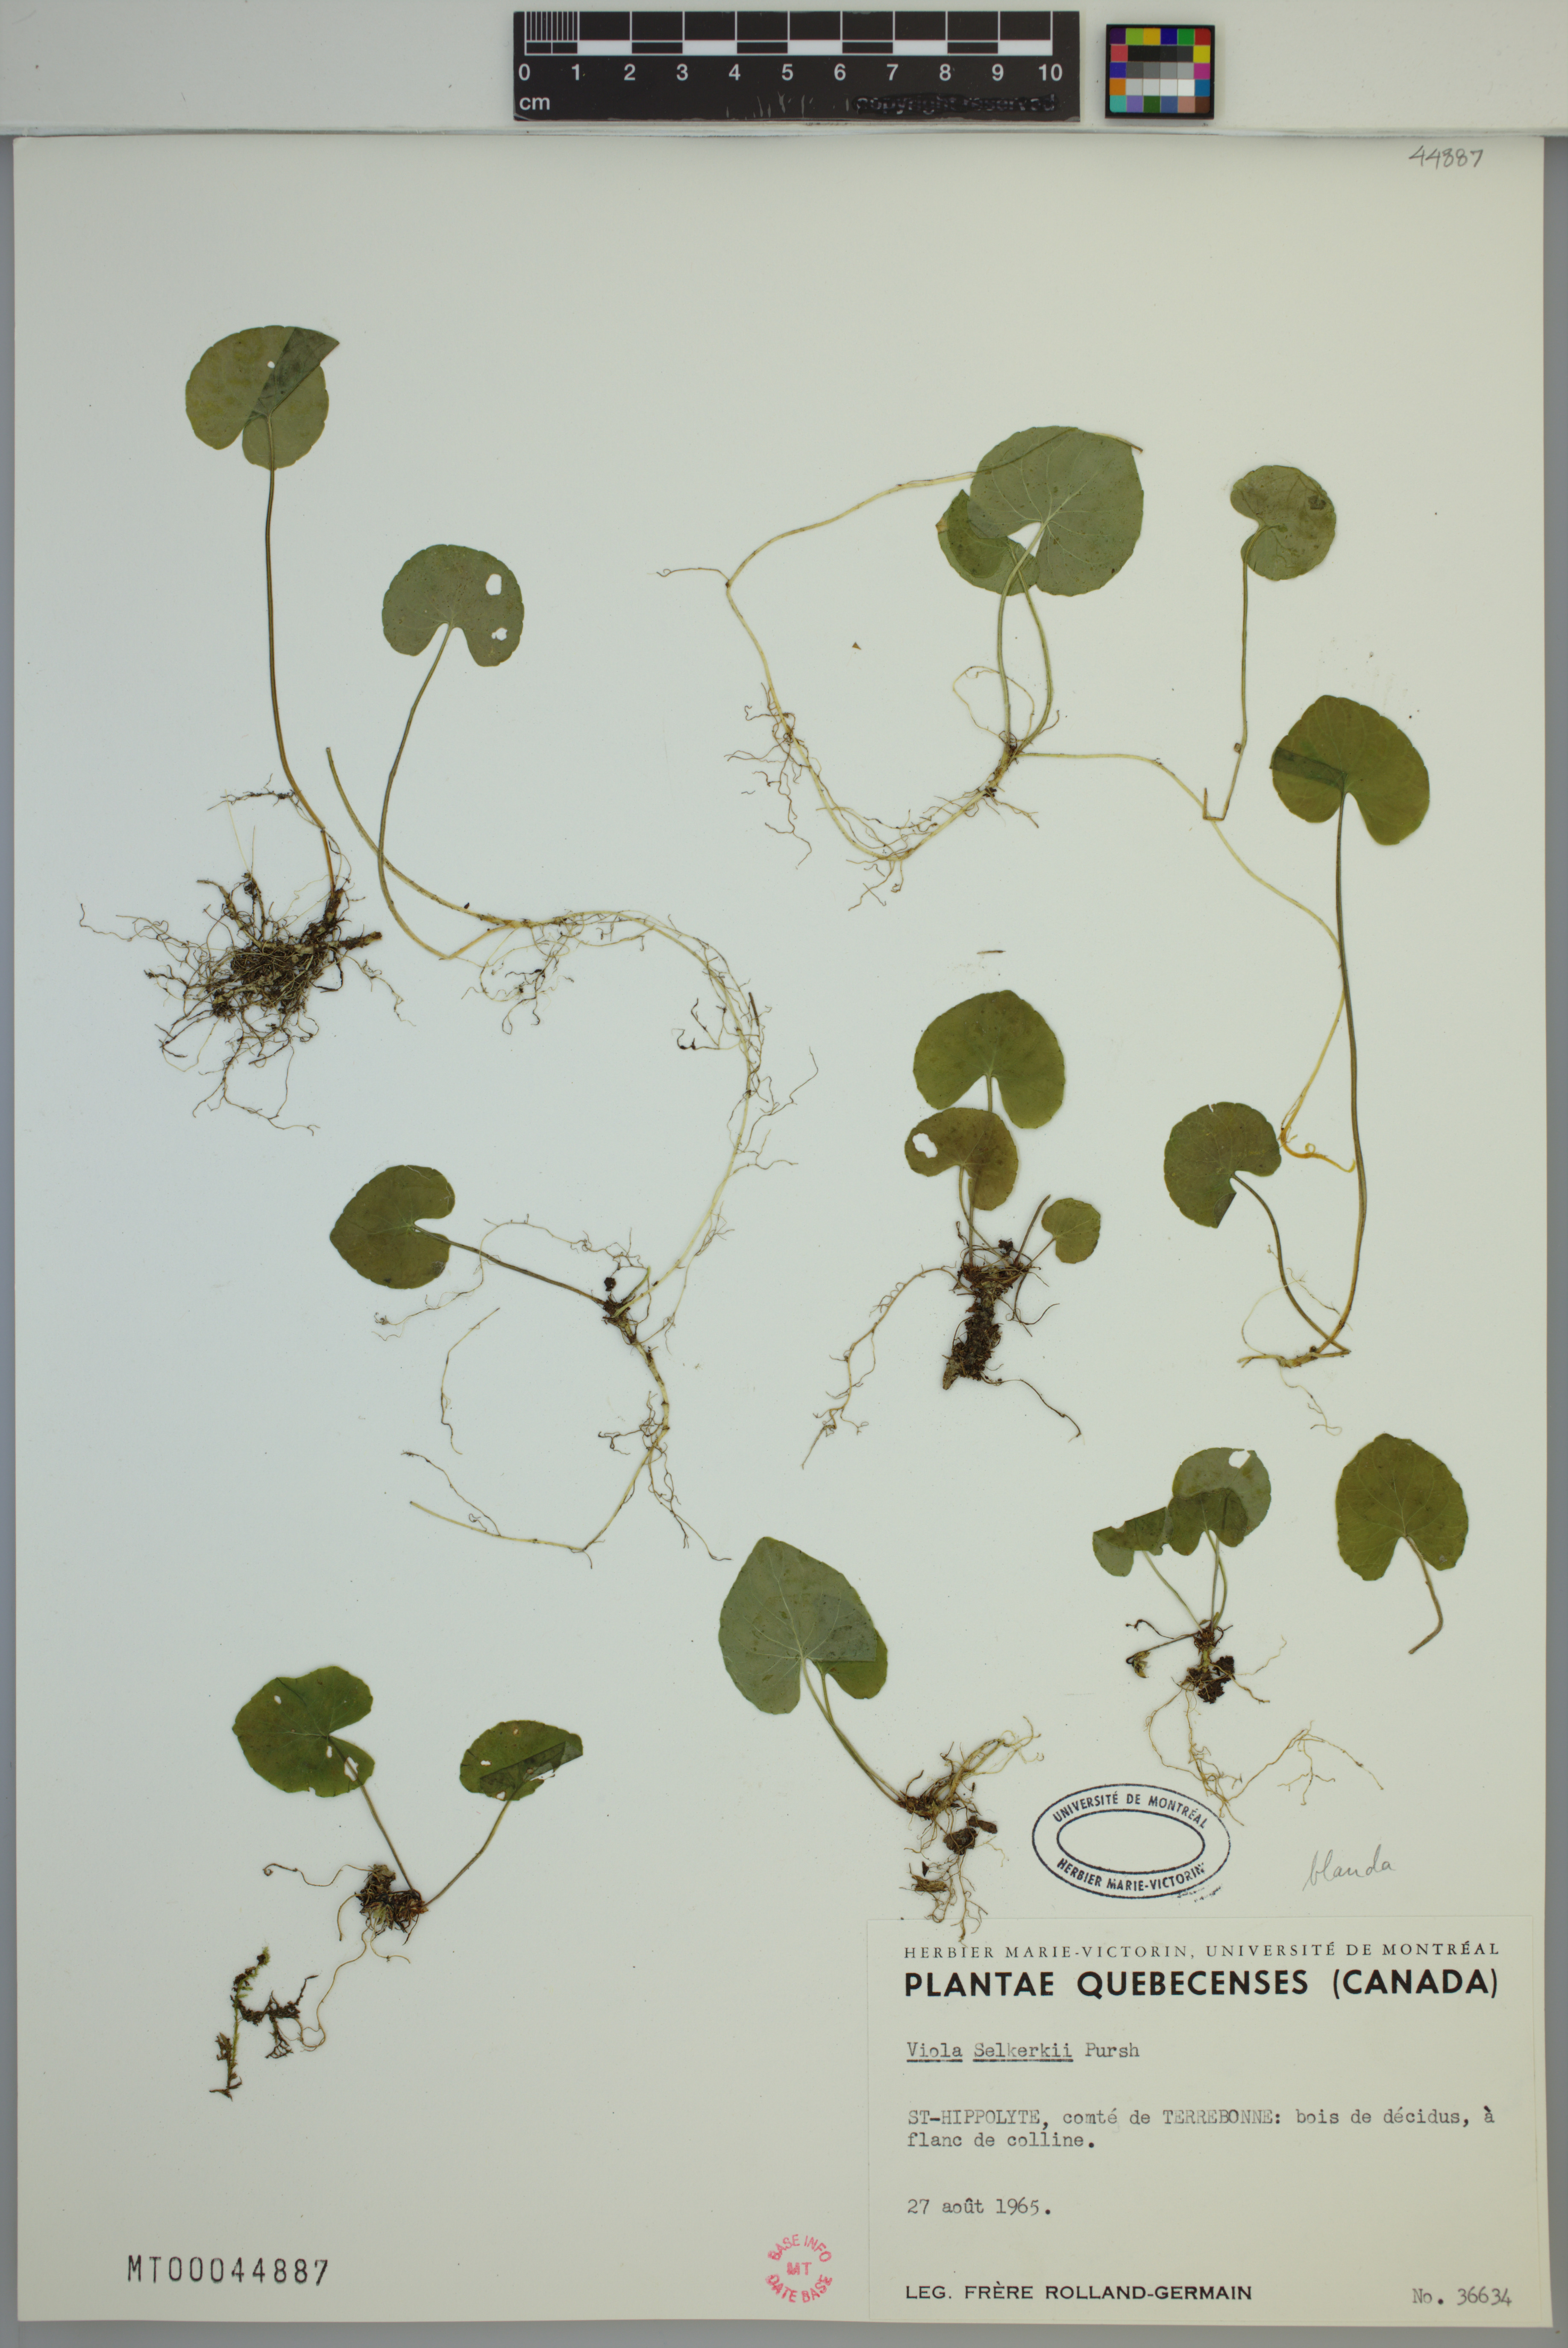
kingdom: Plantae
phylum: Tracheophyta
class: Magnoliopsida
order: Malpighiales
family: Violaceae
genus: Viola
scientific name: Viola selkirkii
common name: Selkirk's violet
